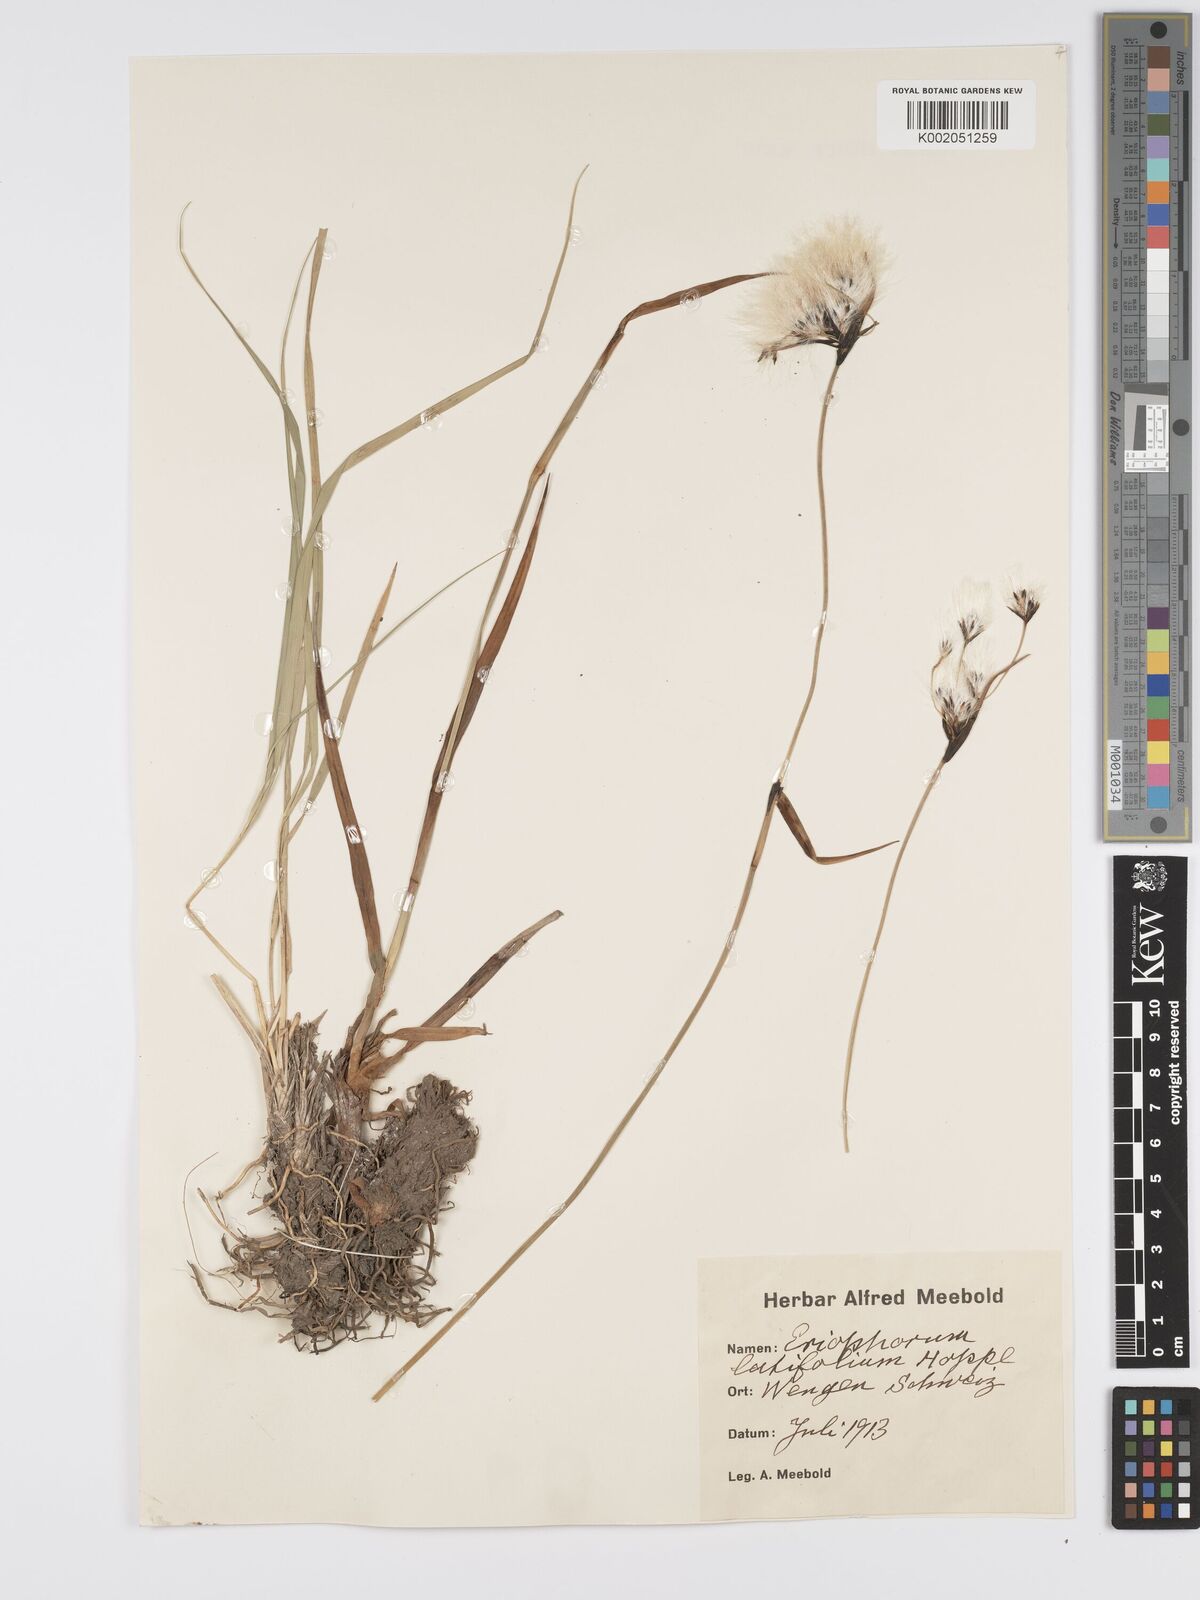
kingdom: Plantae
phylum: Tracheophyta
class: Liliopsida
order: Poales
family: Cyperaceae
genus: Eriophorum
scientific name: Eriophorum latifolium
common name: Broad-leaved cottongrass
